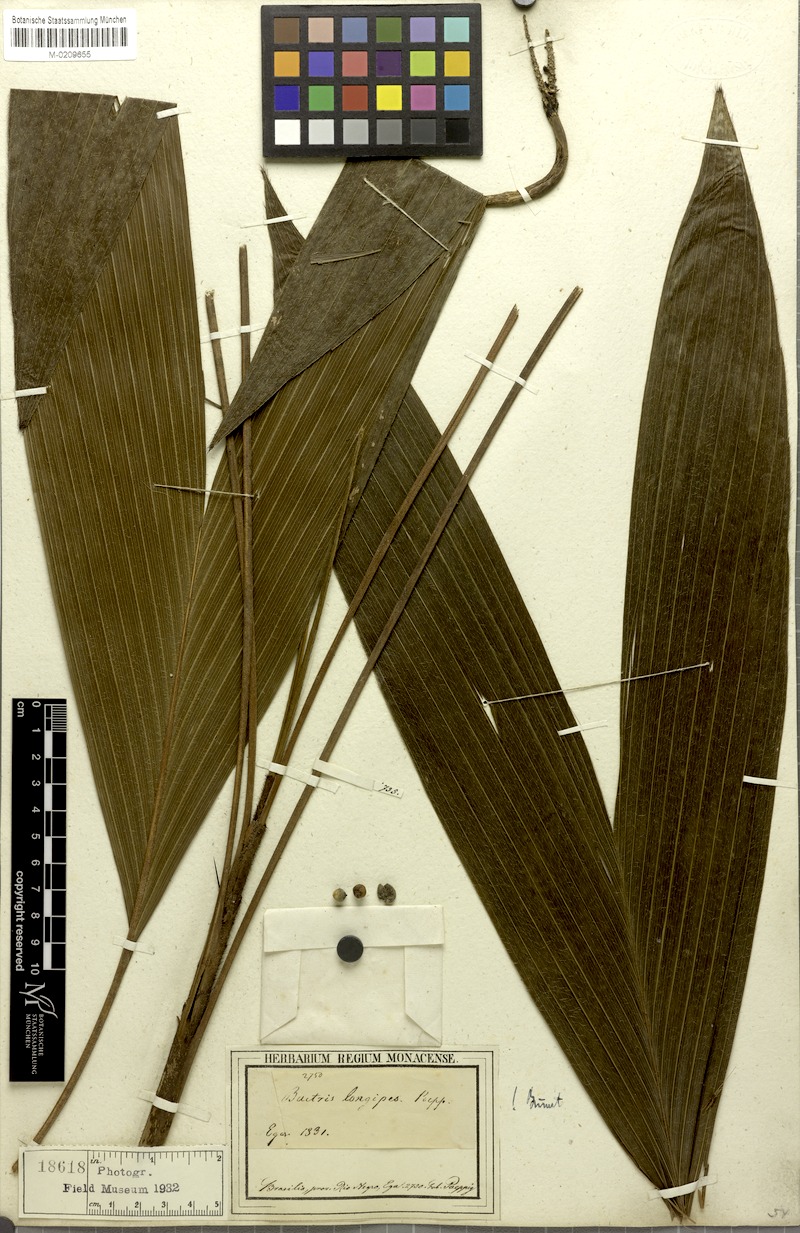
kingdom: Plantae
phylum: Tracheophyta
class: Liliopsida
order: Arecales
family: Arecaceae
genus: Bactris
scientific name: Bactris hirta
